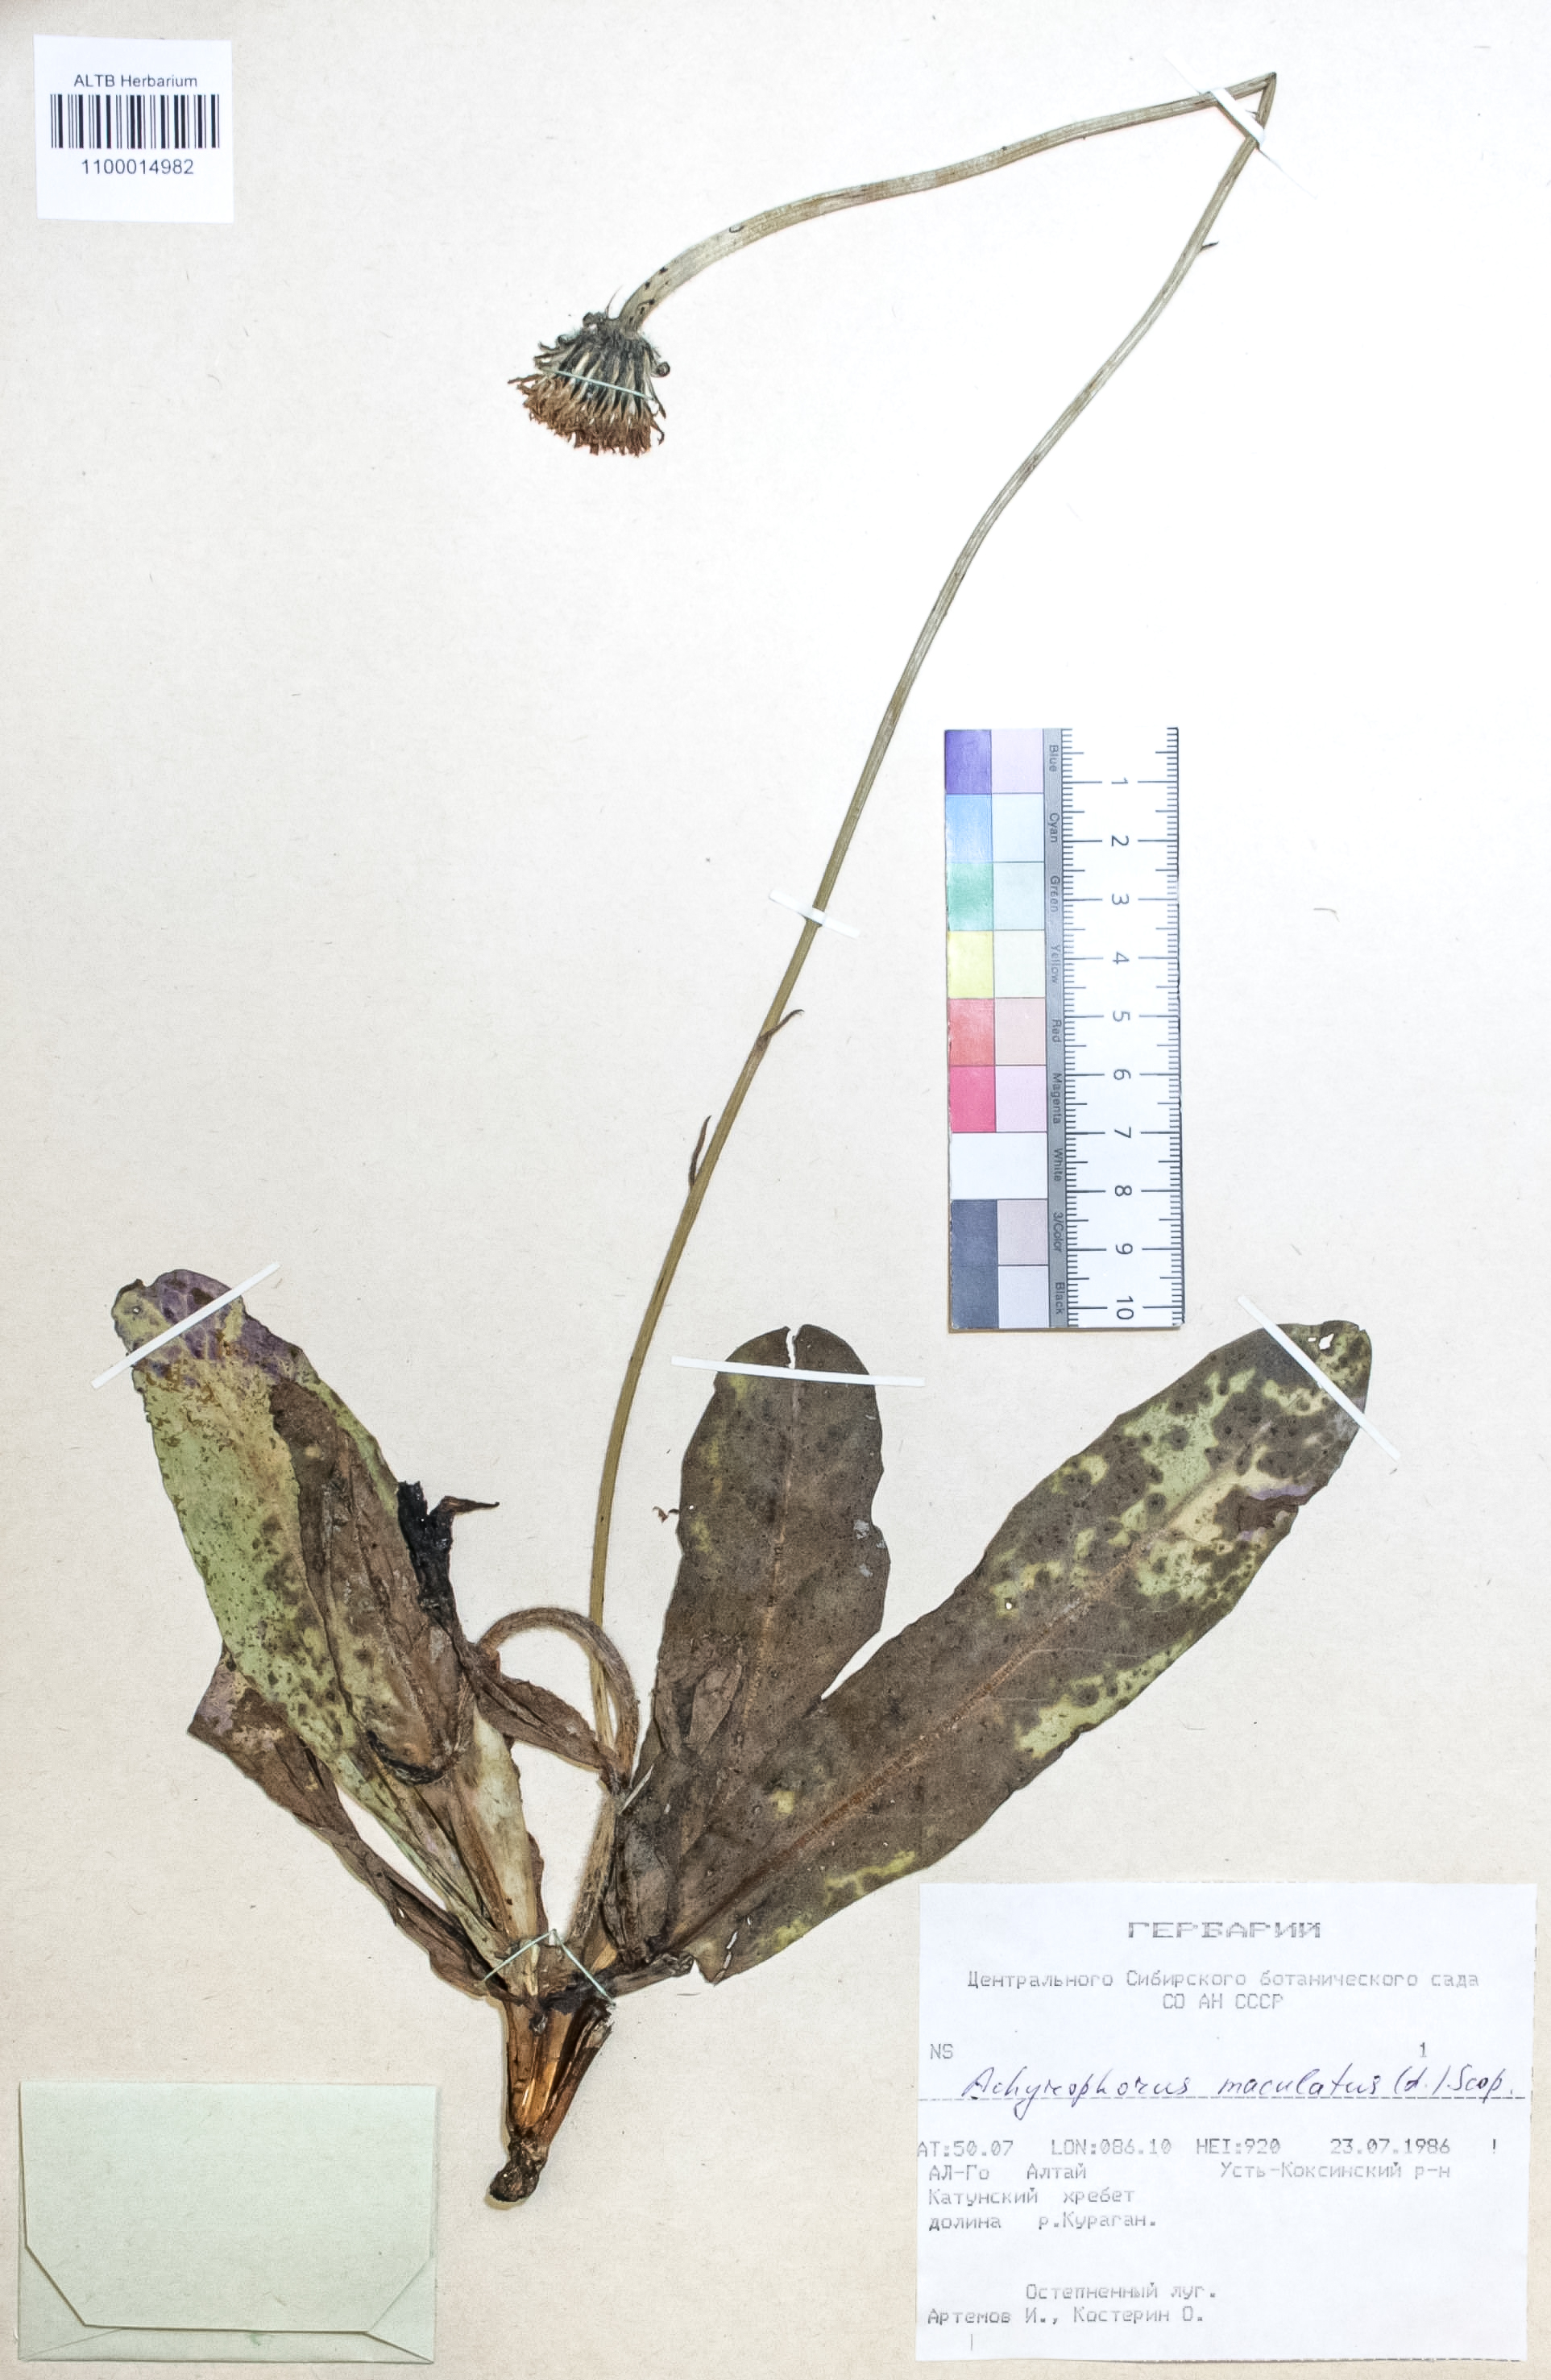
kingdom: Plantae
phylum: Tracheophyta
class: Magnoliopsida
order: Asterales
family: Asteraceae
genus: Trommsdorffia
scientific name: Trommsdorffia maculata
